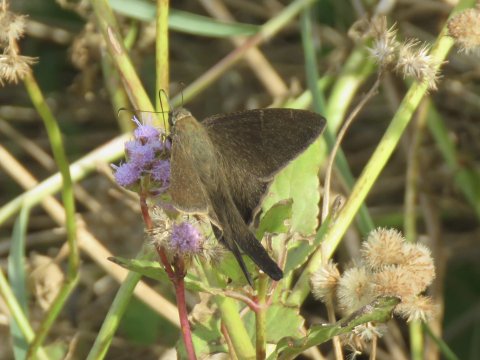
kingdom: Animalia
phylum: Arthropoda
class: Insecta
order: Lepidoptera
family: Hesperiidae
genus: Urbanus
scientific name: Urbanus procne
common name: Brown Longtail
